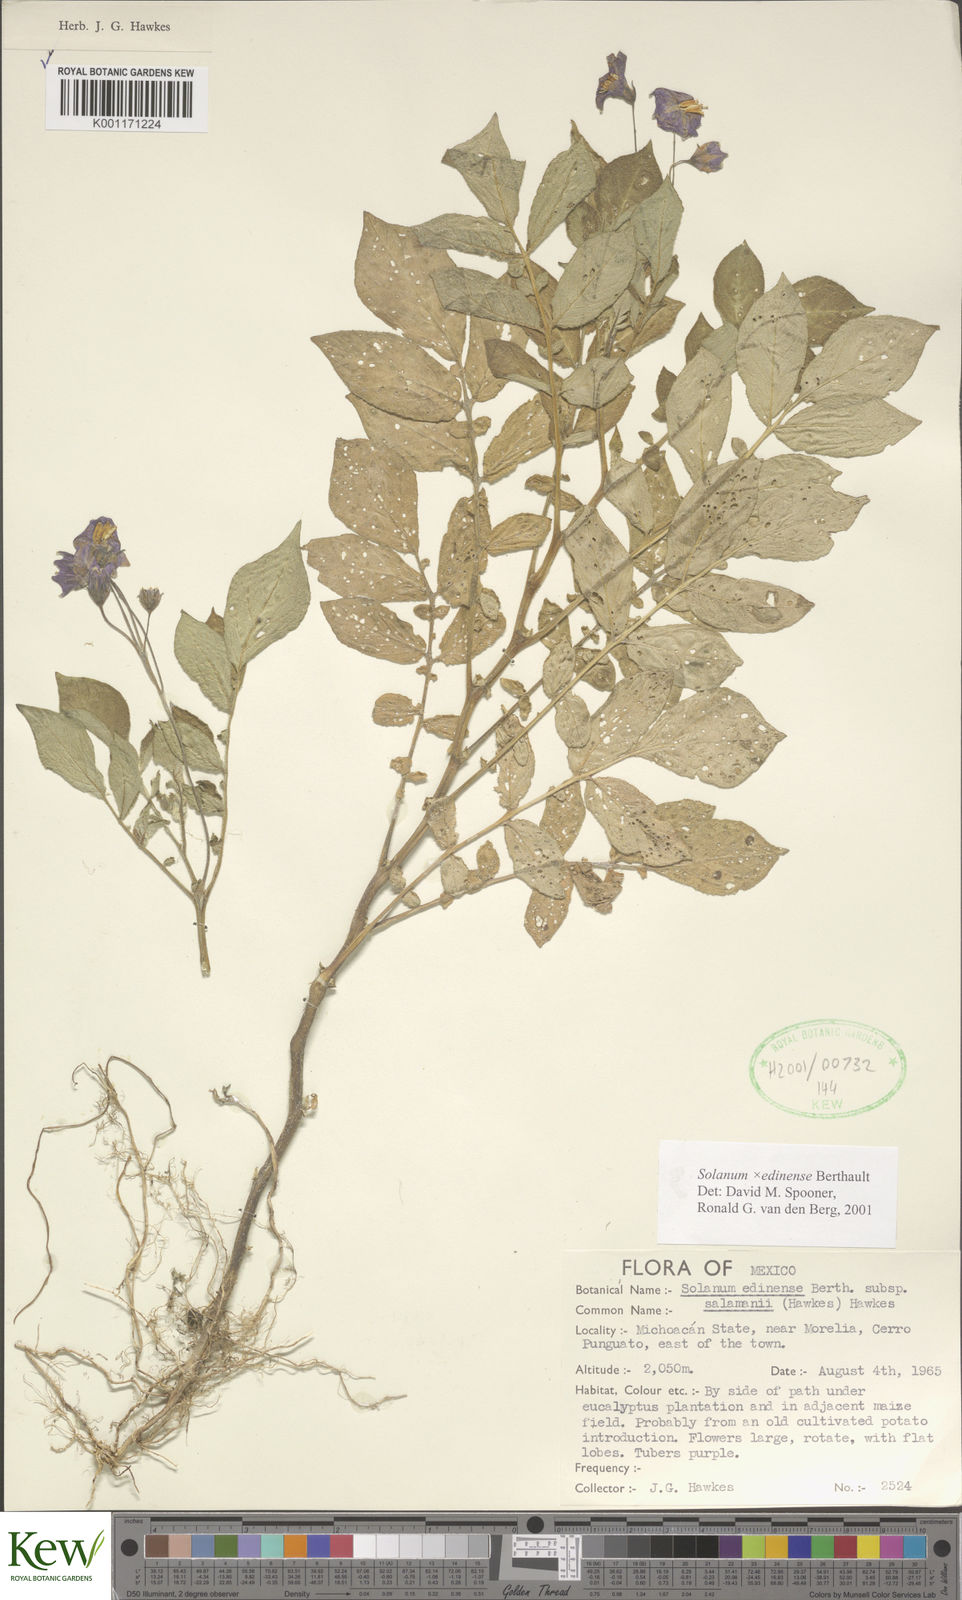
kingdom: Plantae
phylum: Tracheophyta
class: Magnoliopsida
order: Solanales
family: Solanaceae
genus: Solanum
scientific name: Solanum edinense
